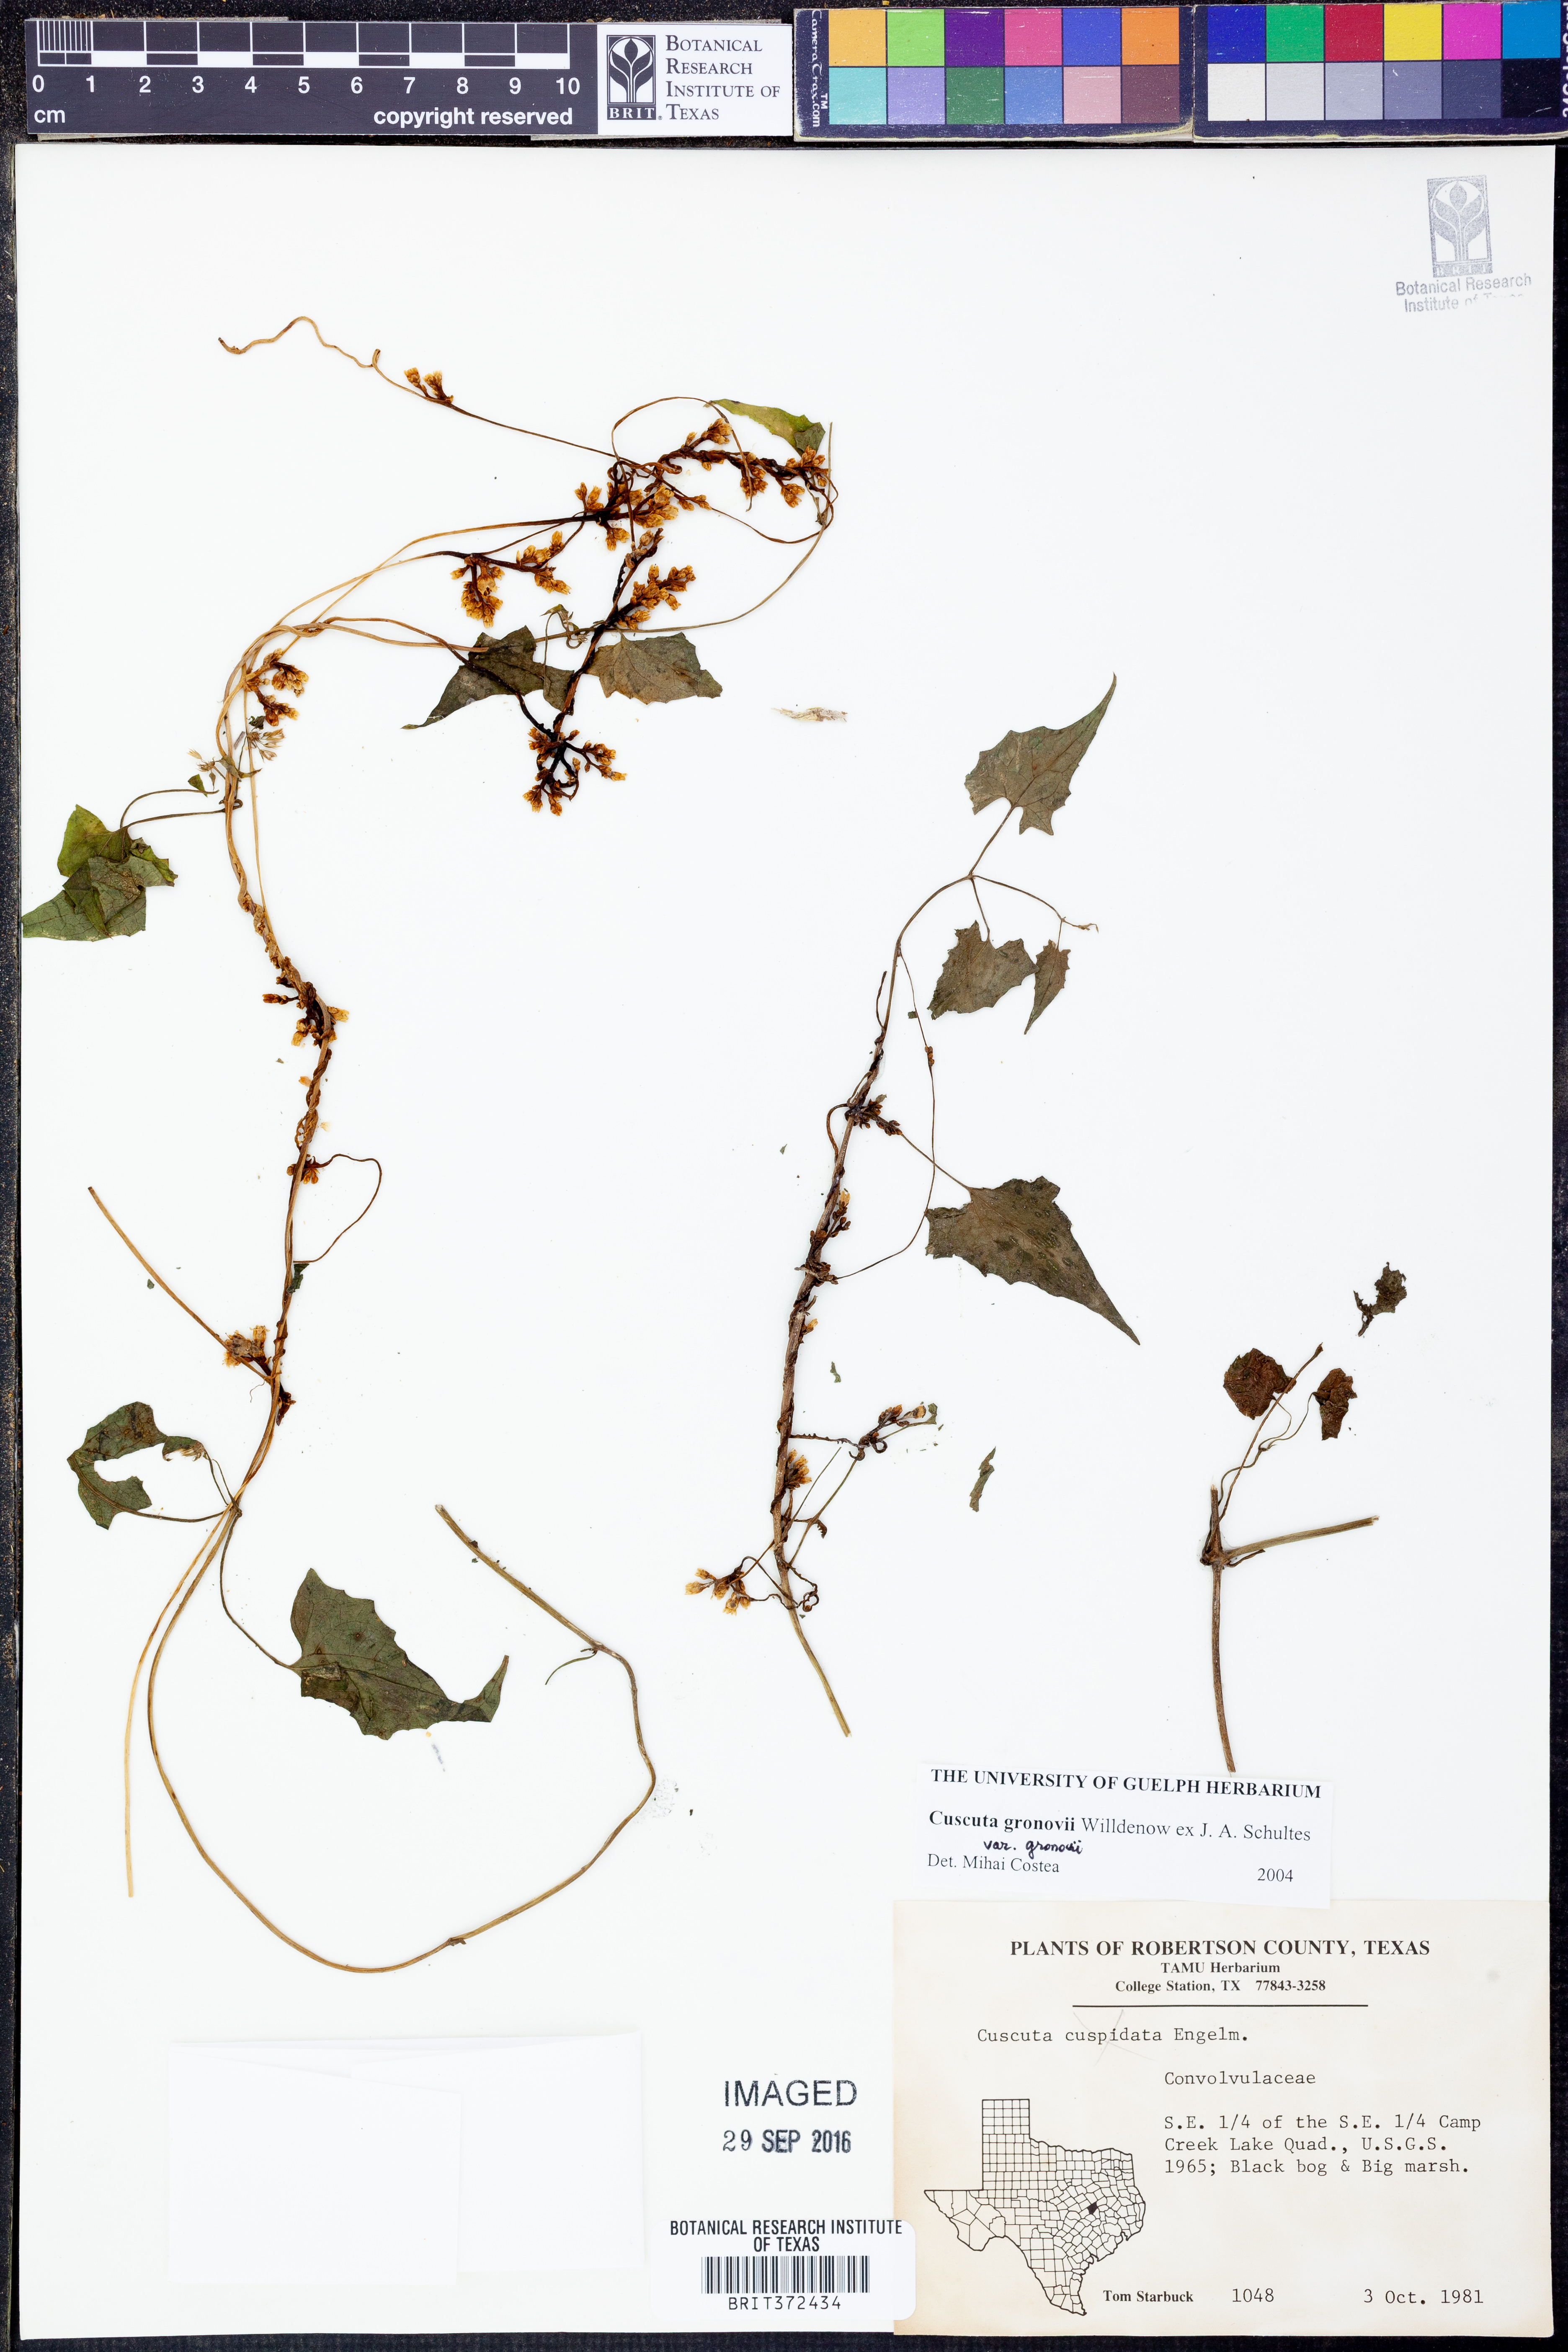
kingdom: Plantae
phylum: Tracheophyta
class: Magnoliopsida
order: Solanales
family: Convolvulaceae
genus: Cuscuta
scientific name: Cuscuta gronovii
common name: Common dodder
